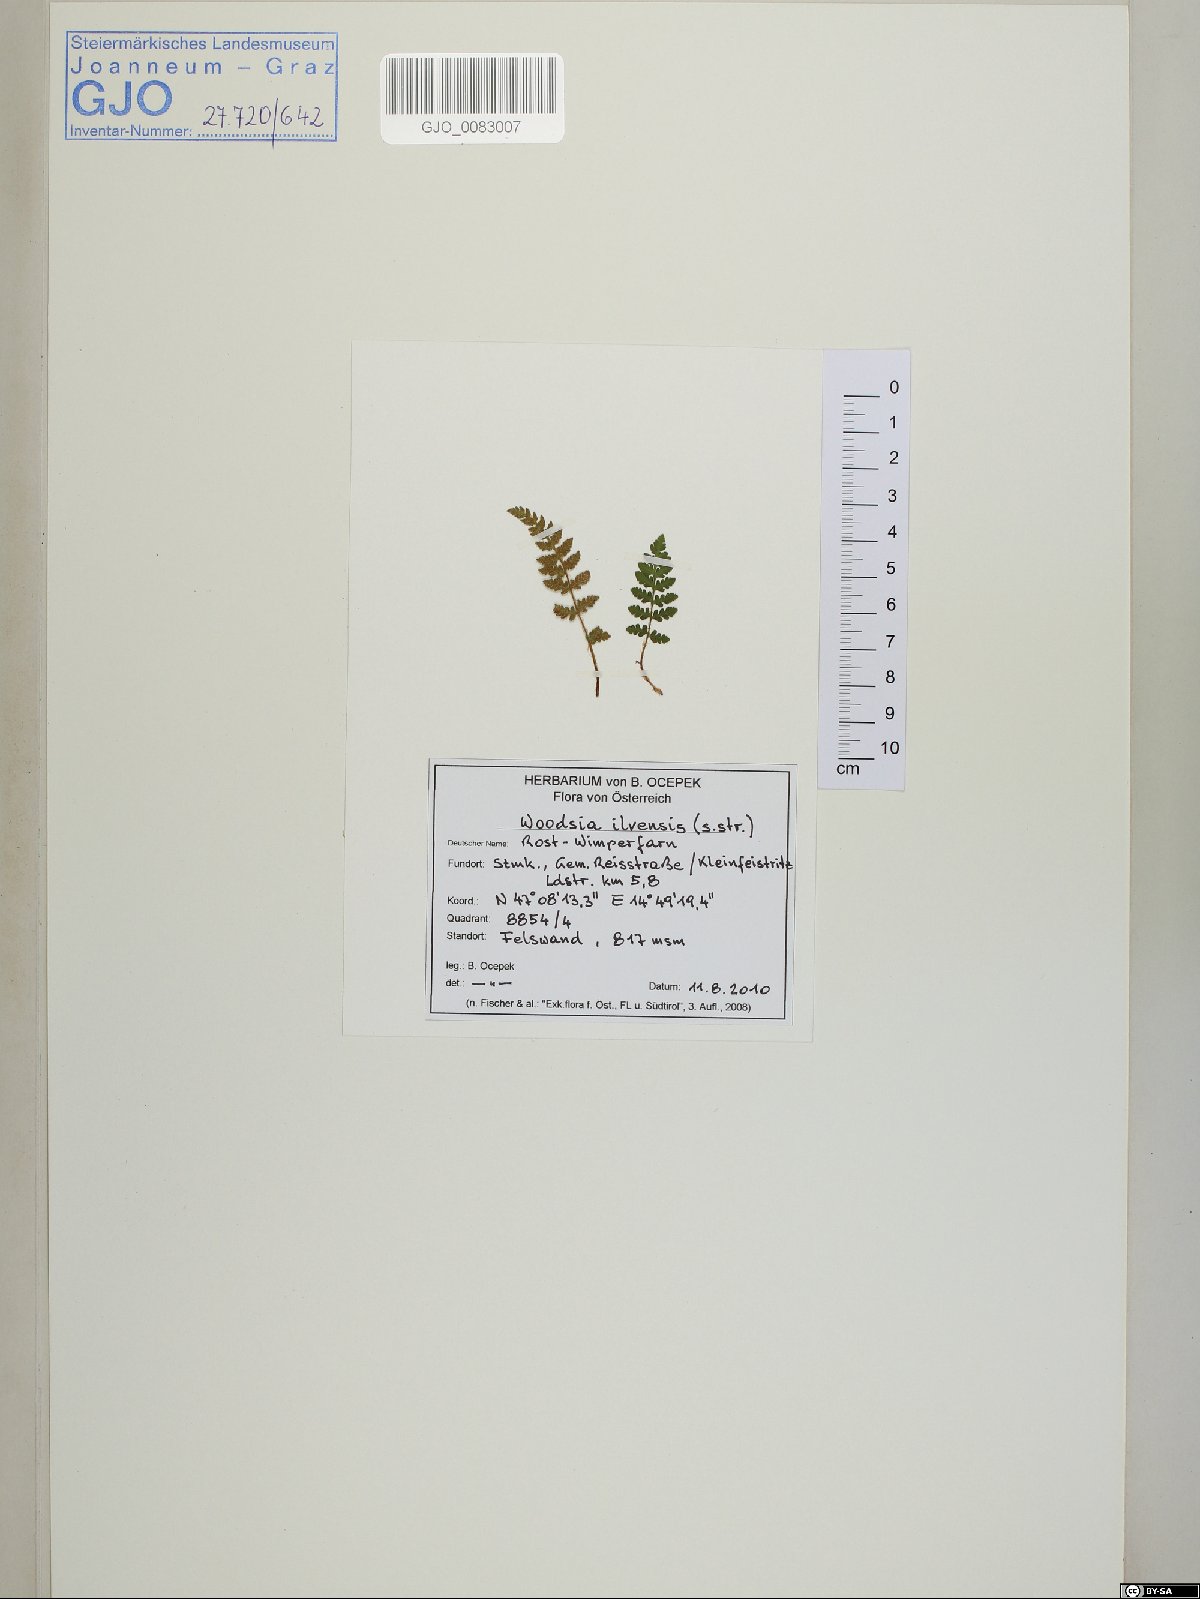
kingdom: Plantae
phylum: Tracheophyta
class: Polypodiopsida
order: Polypodiales
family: Woodsiaceae
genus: Woodsia
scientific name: Woodsia ilvensis
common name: Fragrant woodsia
